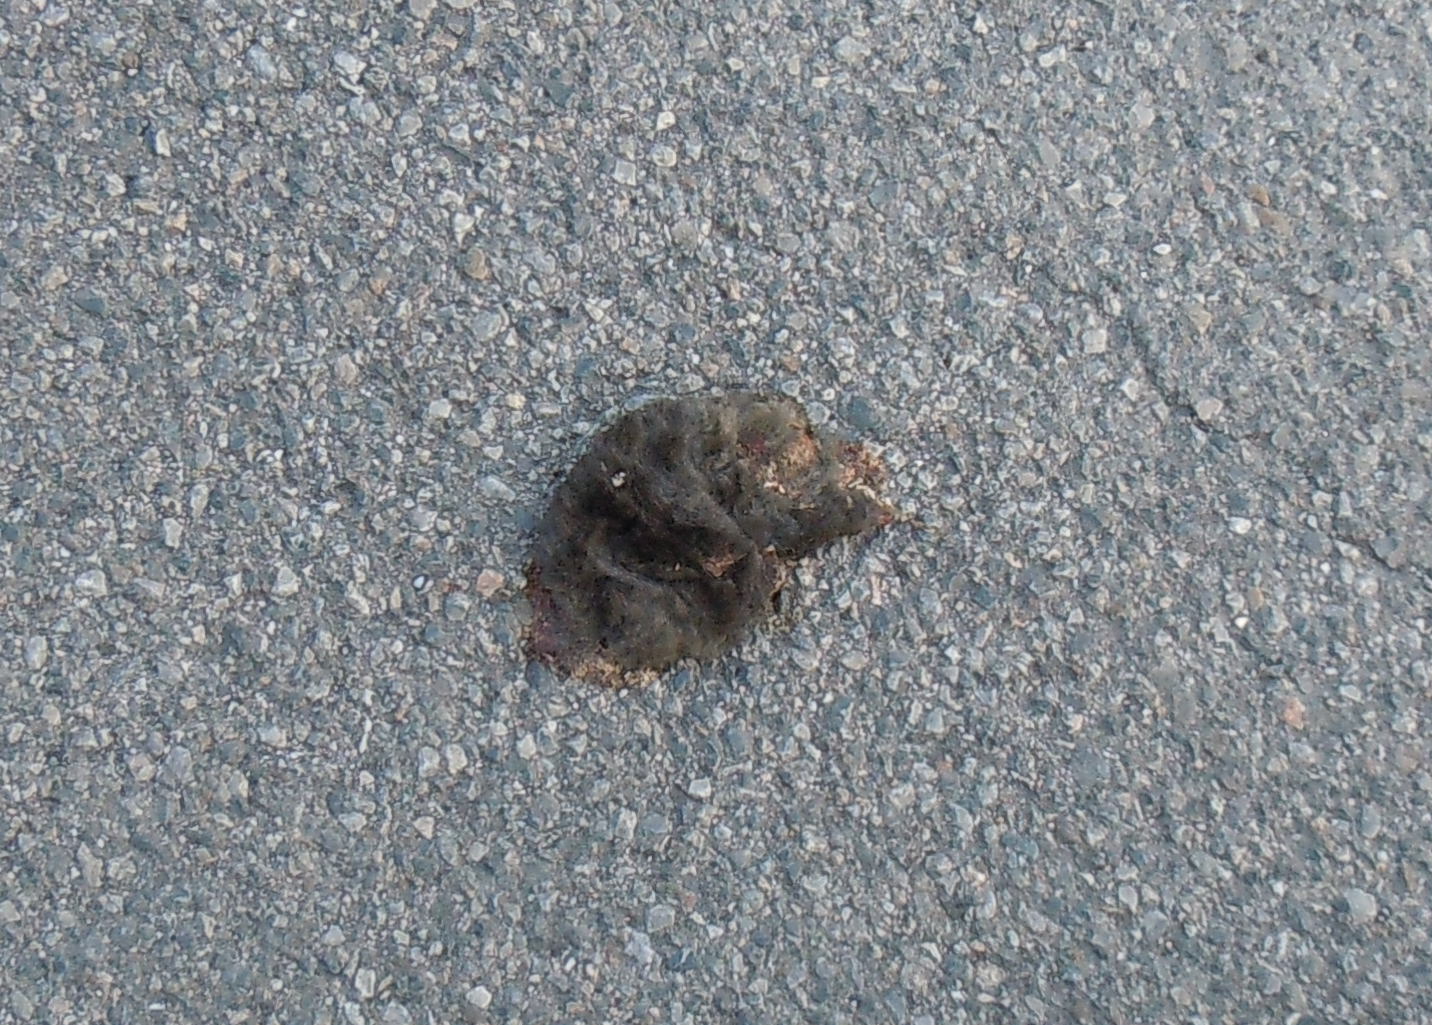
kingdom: Animalia
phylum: Chordata
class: Mammalia
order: Soricomorpha
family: Talpidae
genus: Talpa
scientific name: Talpa europaea
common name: European mole
